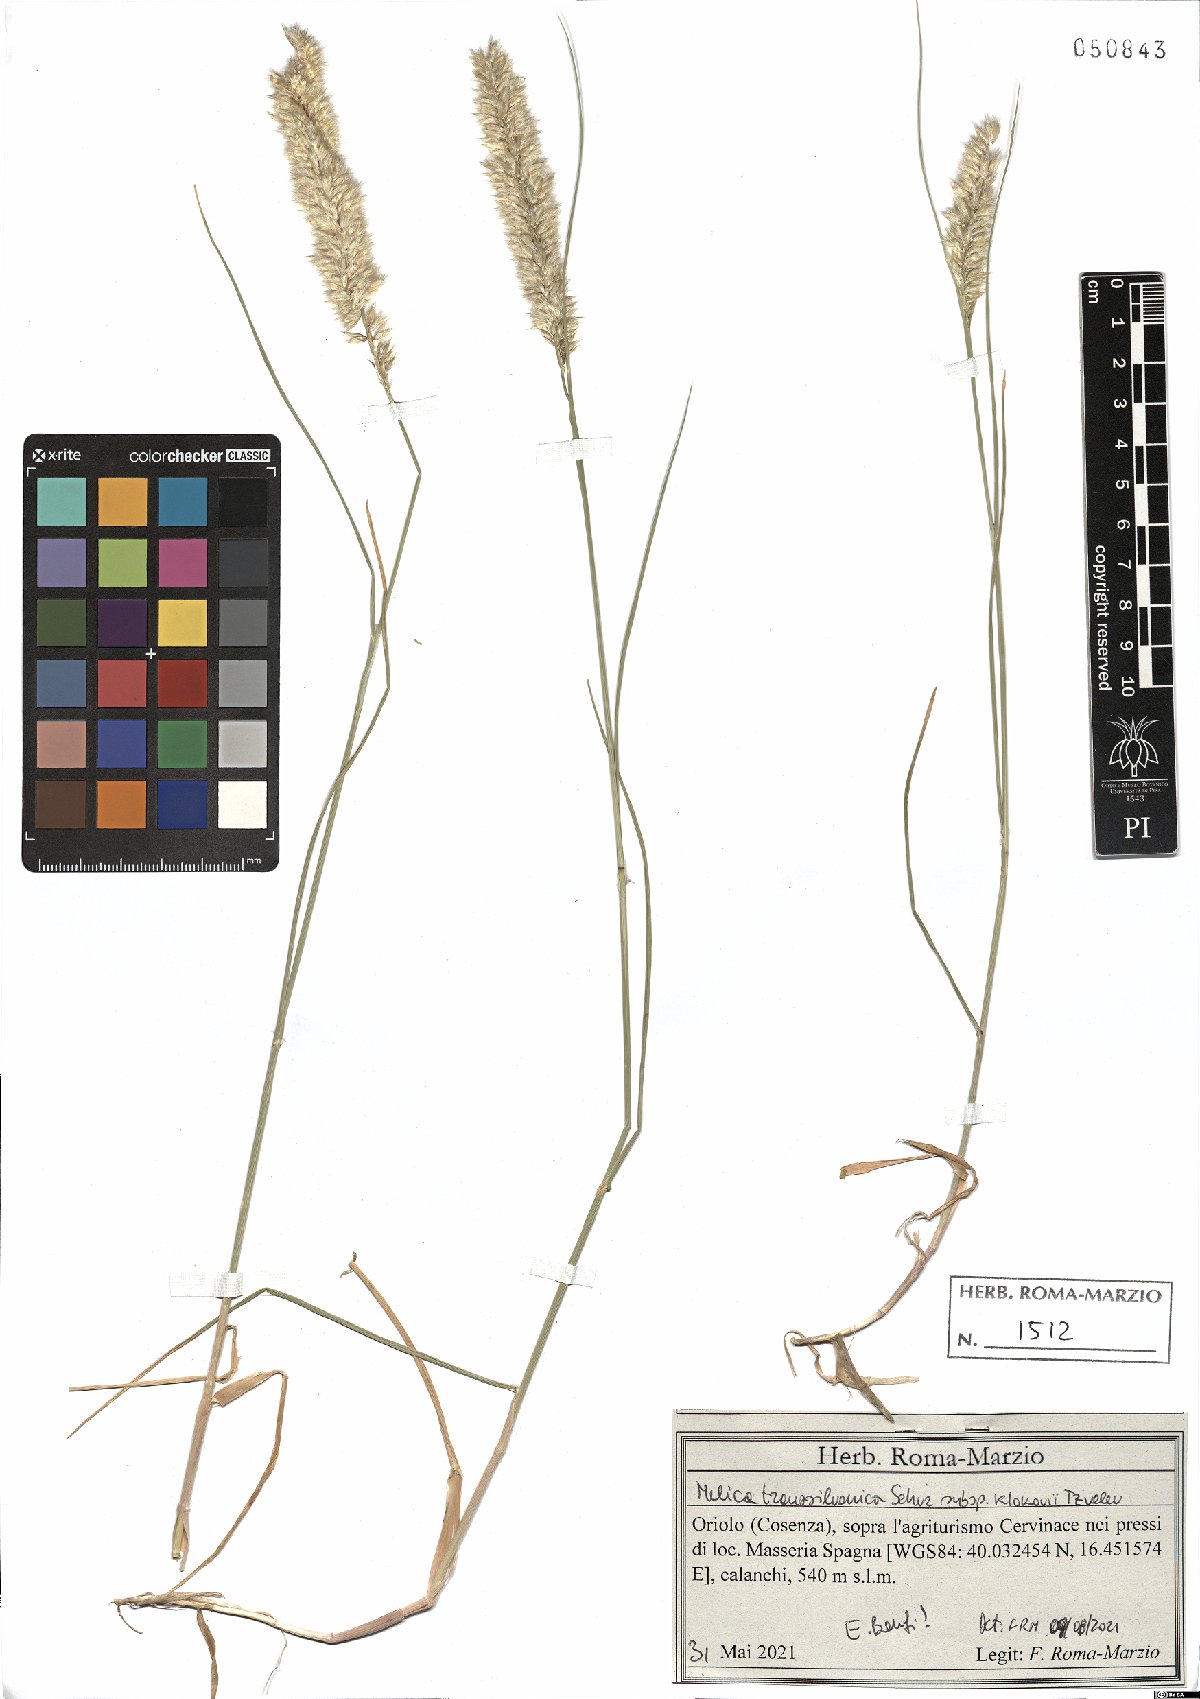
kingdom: Plantae
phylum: Tracheophyta
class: Liliopsida
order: Poales
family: Poaceae
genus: Melica
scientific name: Melica transsilvanica
